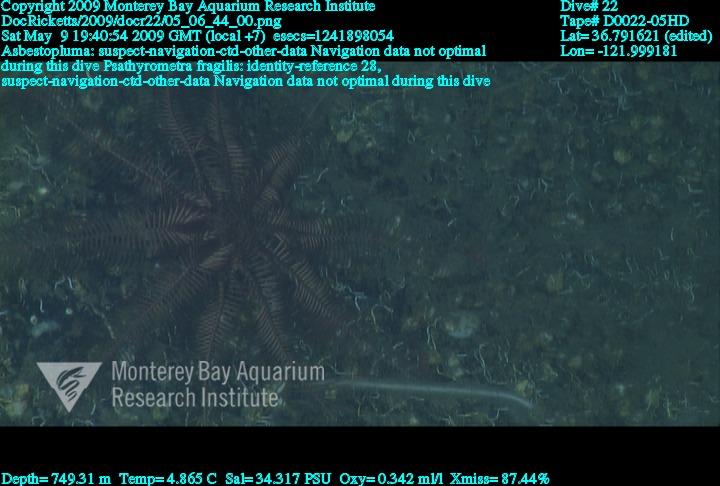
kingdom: Animalia
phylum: Porifera
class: Demospongiae
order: Poecilosclerida
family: Cladorhizidae
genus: Asbestopluma
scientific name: Asbestopluma
